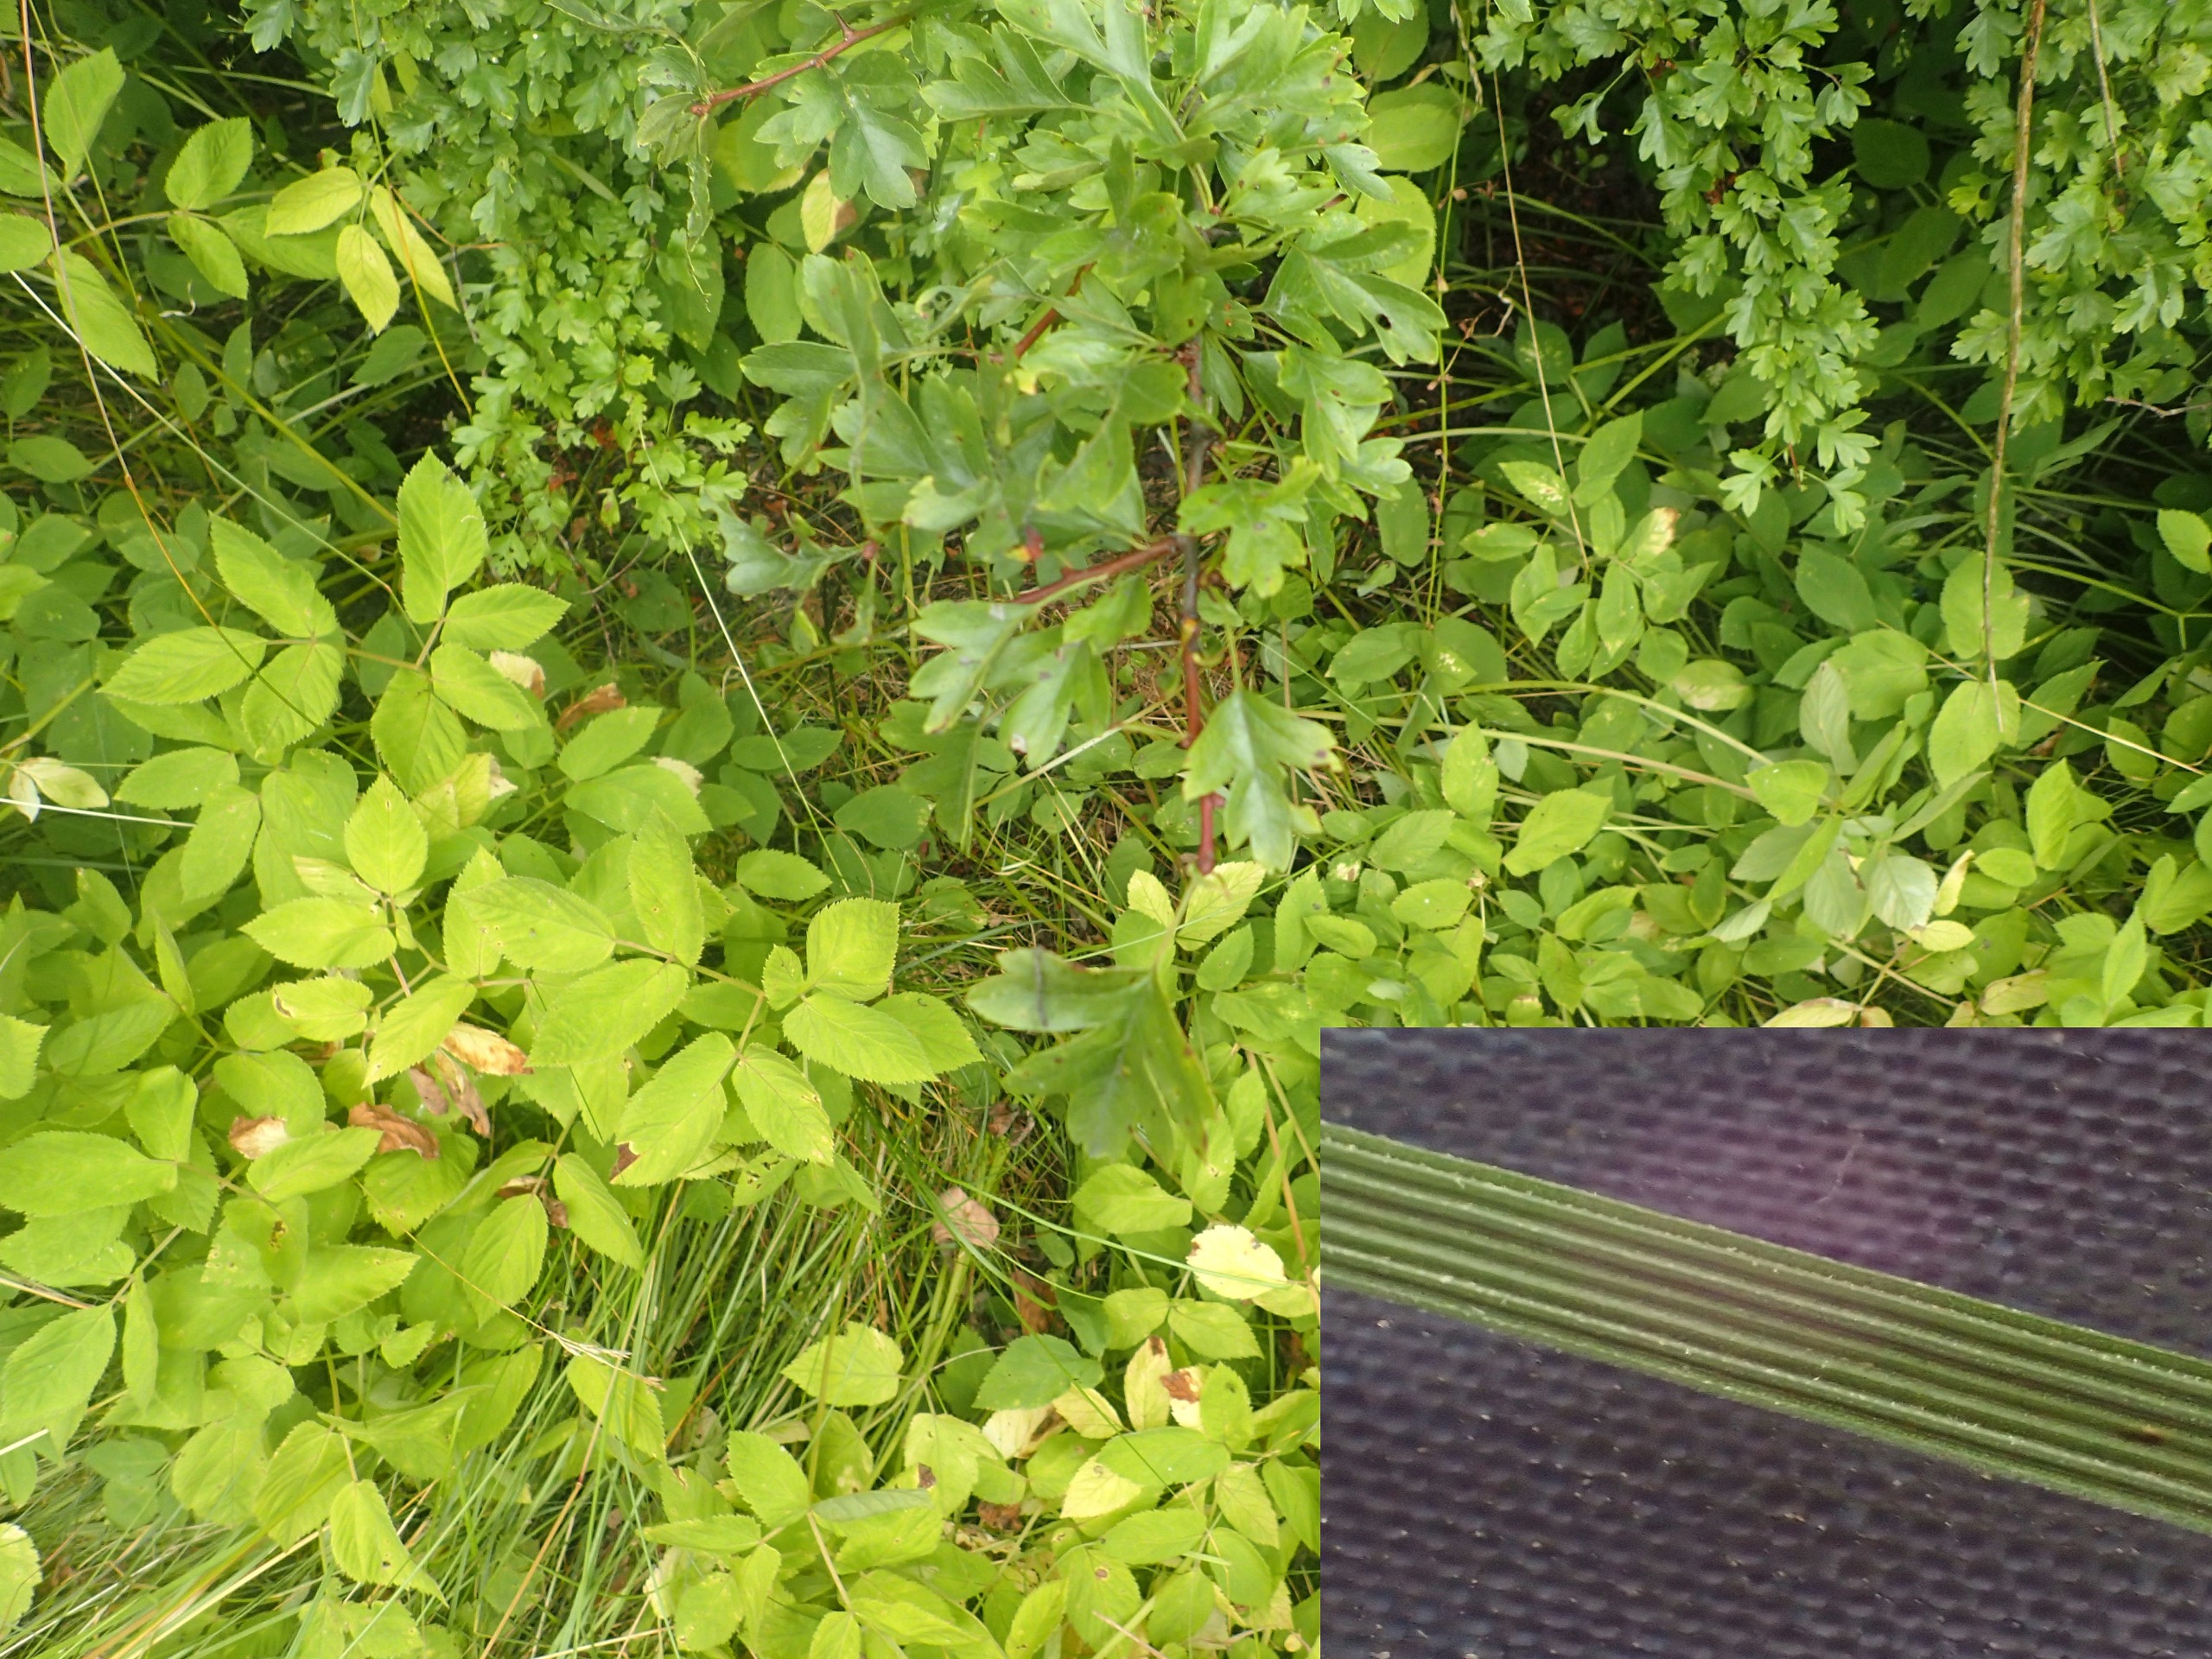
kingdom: Plantae
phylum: Tracheophyta
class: Liliopsida
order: Poales
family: Poaceae
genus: Deschampsia
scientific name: Deschampsia cespitosa
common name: Mose-bunke
